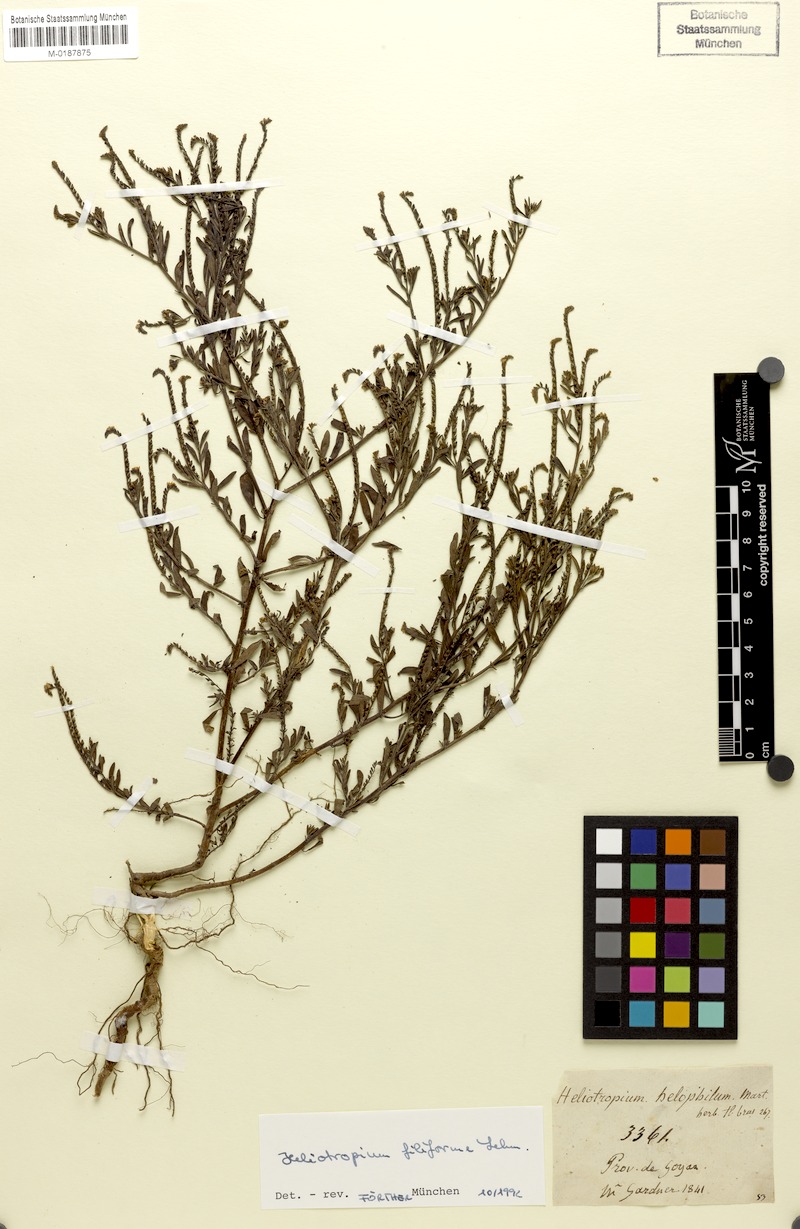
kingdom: Plantae
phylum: Tracheophyta
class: Magnoliopsida
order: Boraginales
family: Heliotropiaceae
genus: Euploca
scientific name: Euploca filiformis
